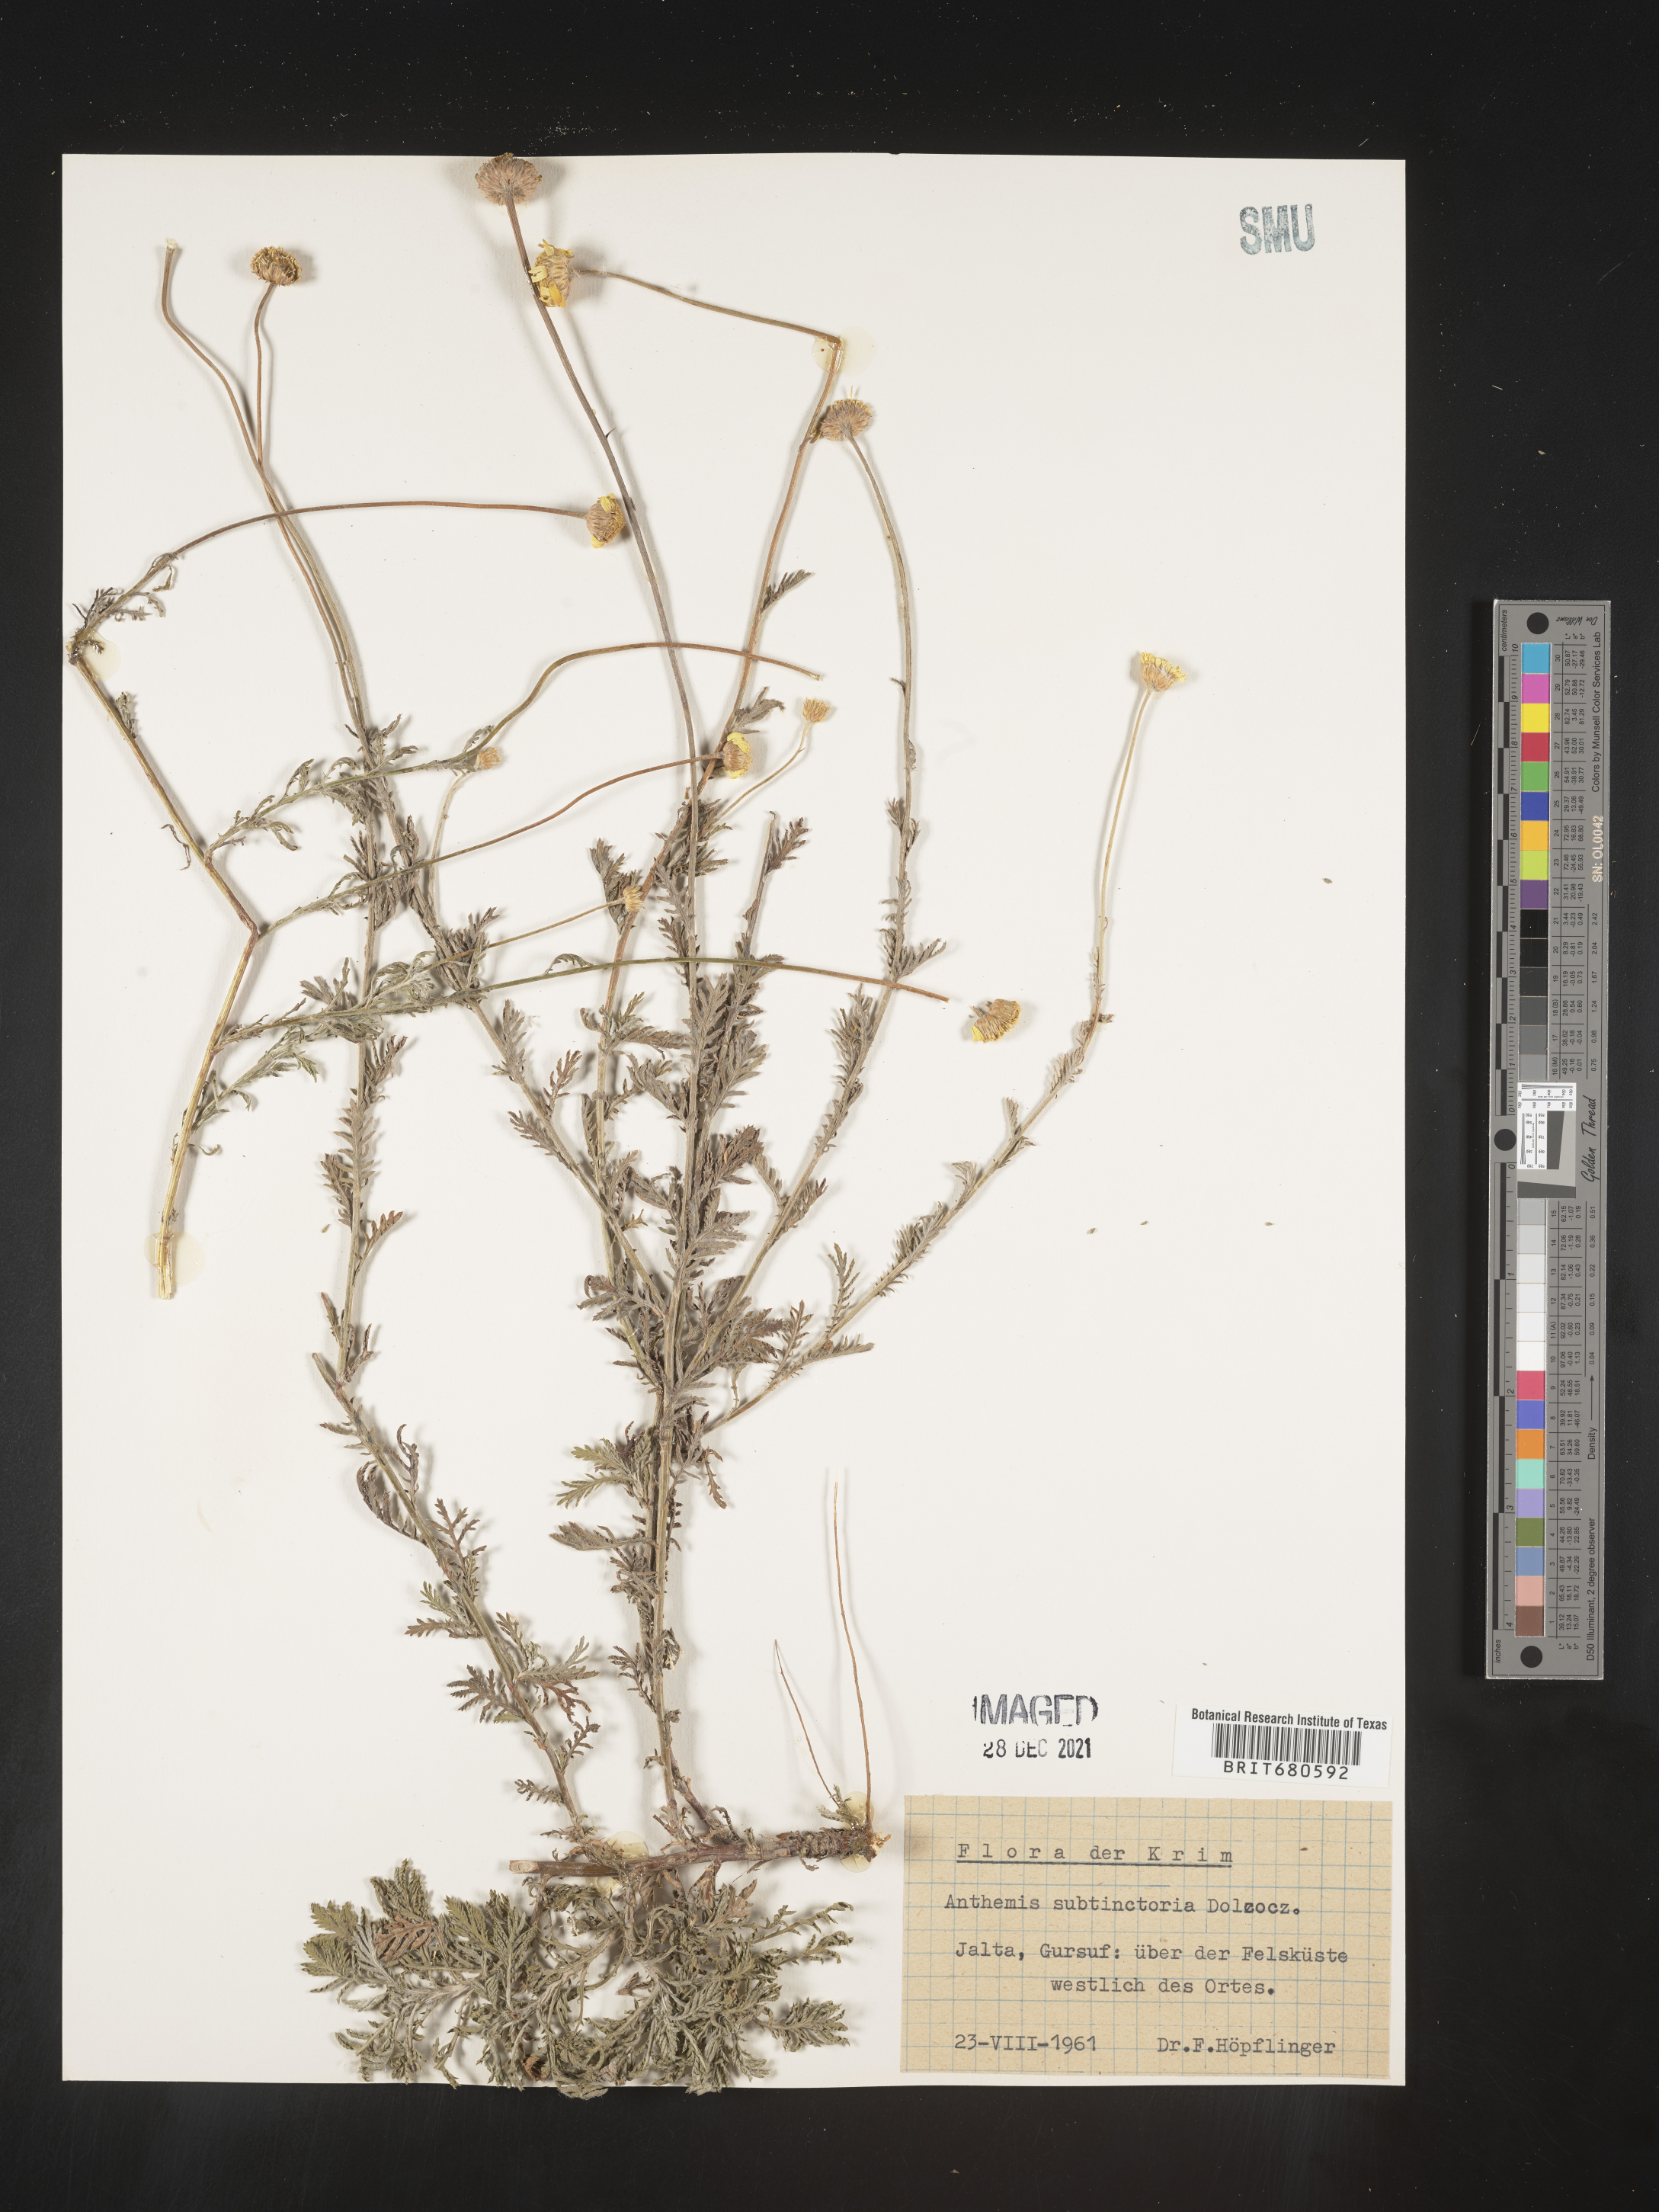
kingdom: Plantae
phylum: Tracheophyta
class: Magnoliopsida
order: Asterales
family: Asteraceae
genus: Anthemis
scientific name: Anthemis
